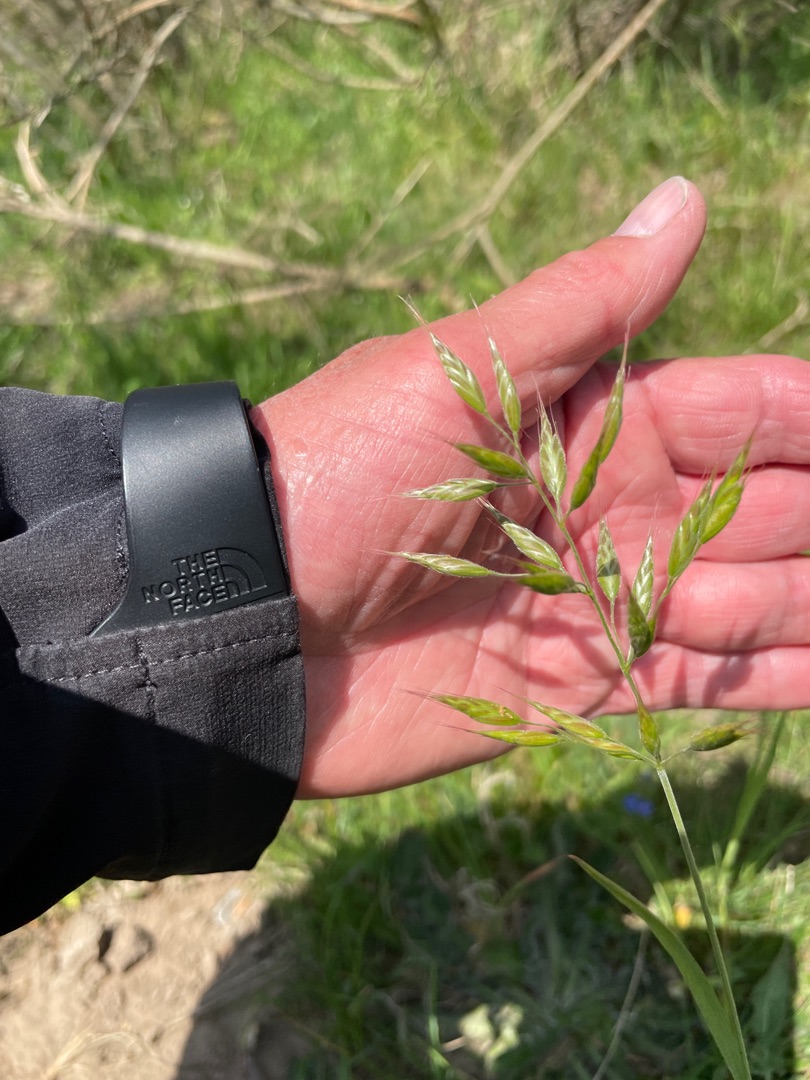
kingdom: Plantae
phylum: Tracheophyta
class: Liliopsida
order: Poales
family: Poaceae
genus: Bromus
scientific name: Bromus hordeaceus
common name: Blød hejre
